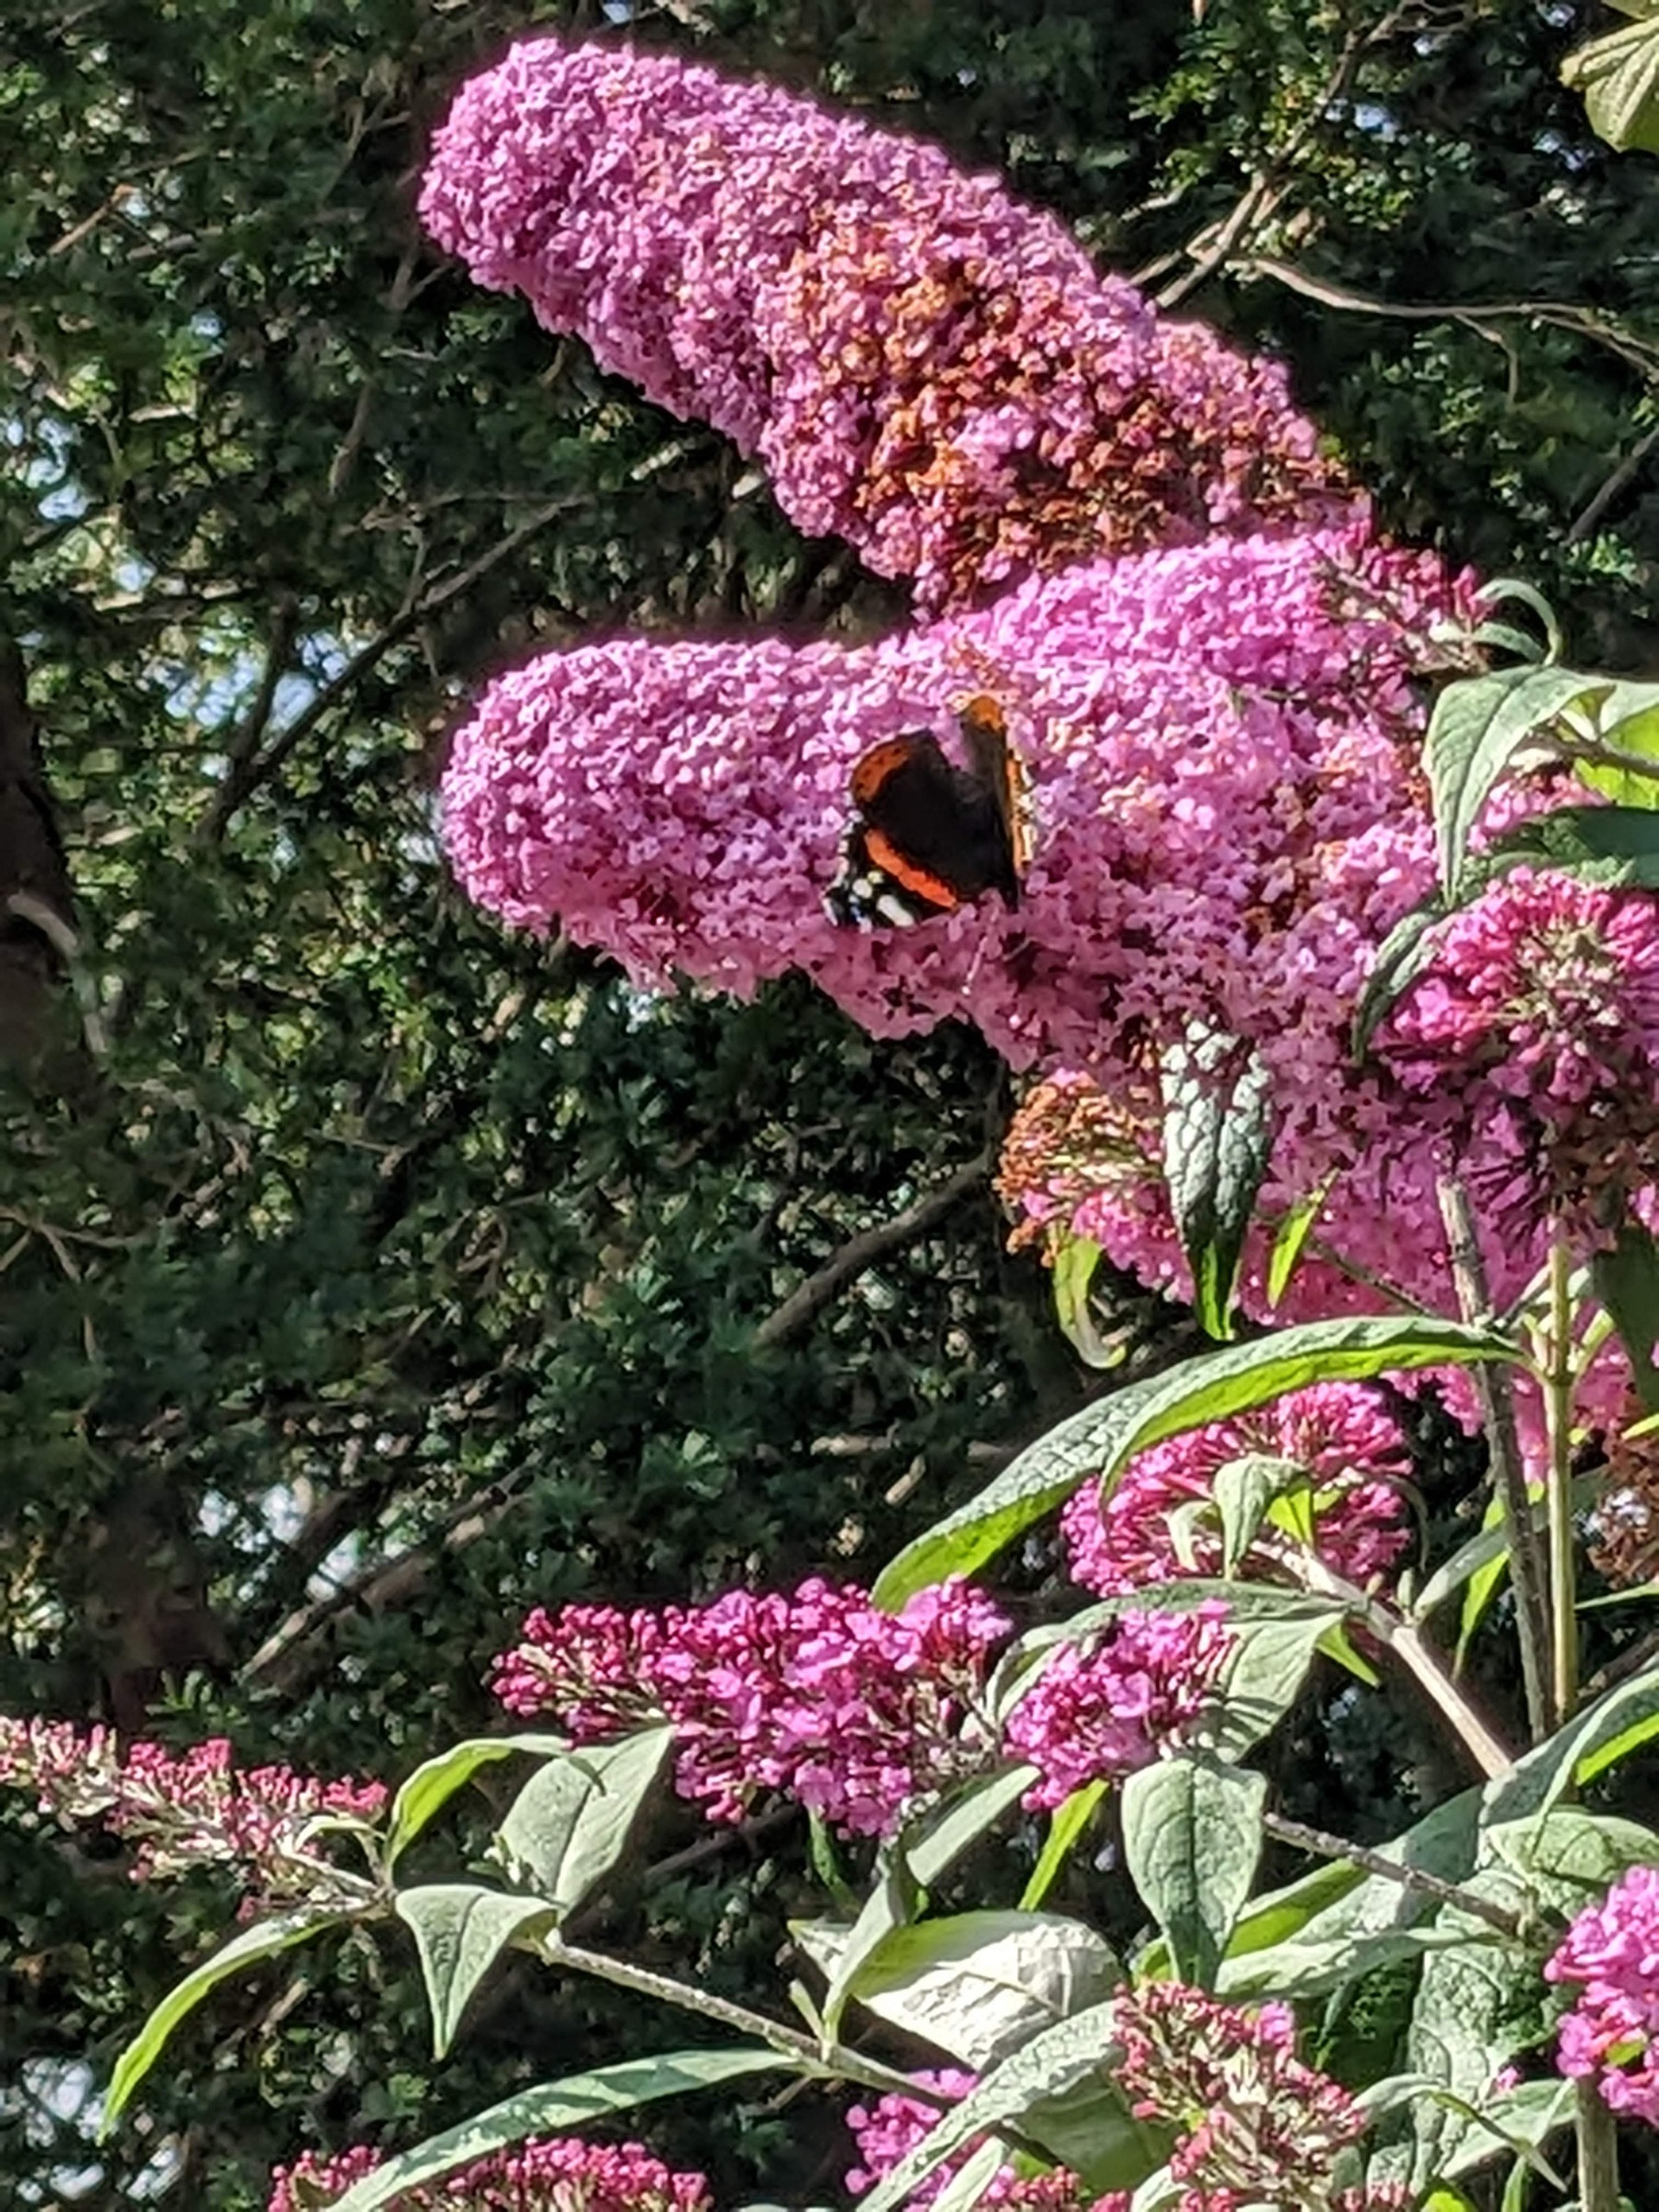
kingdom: Animalia
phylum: Arthropoda
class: Insecta
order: Lepidoptera
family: Nymphalidae
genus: Vanessa
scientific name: Vanessa atalanta
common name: Admiral
